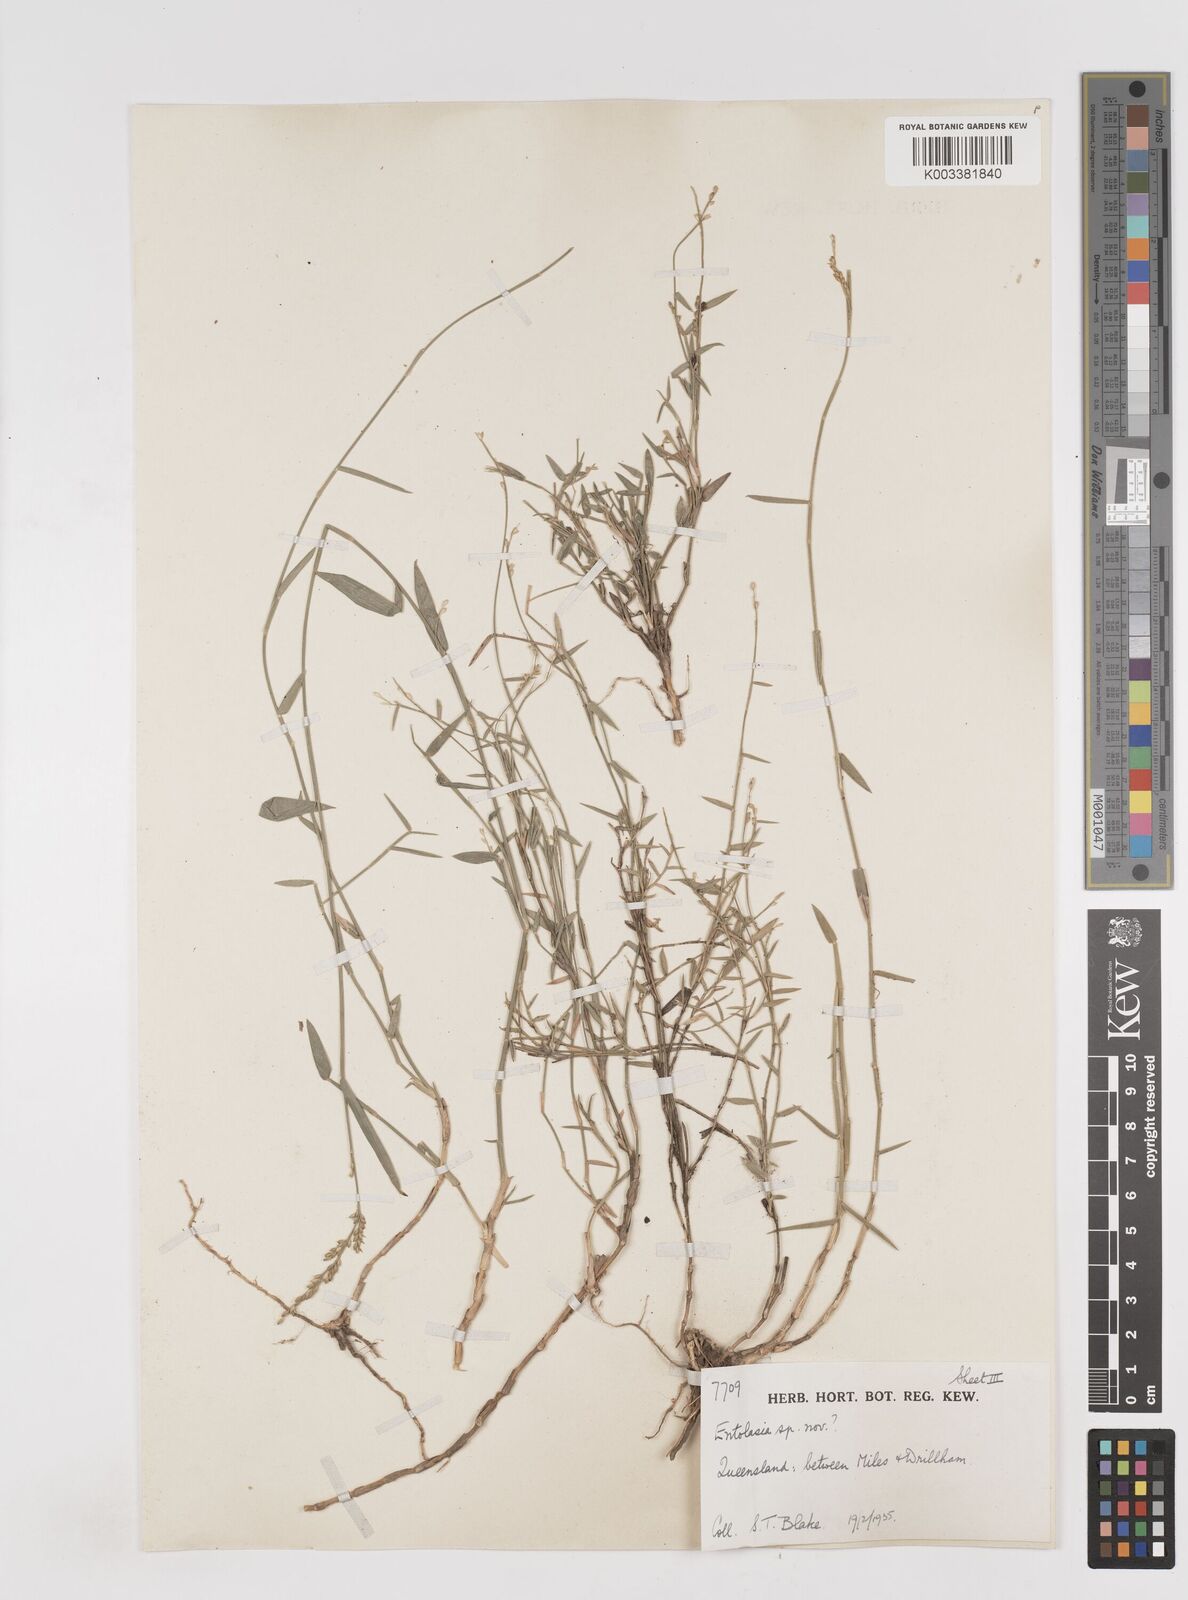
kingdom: Plantae
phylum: Tracheophyta
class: Liliopsida
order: Poales
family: Poaceae
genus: Entolasia
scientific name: Entolasia
